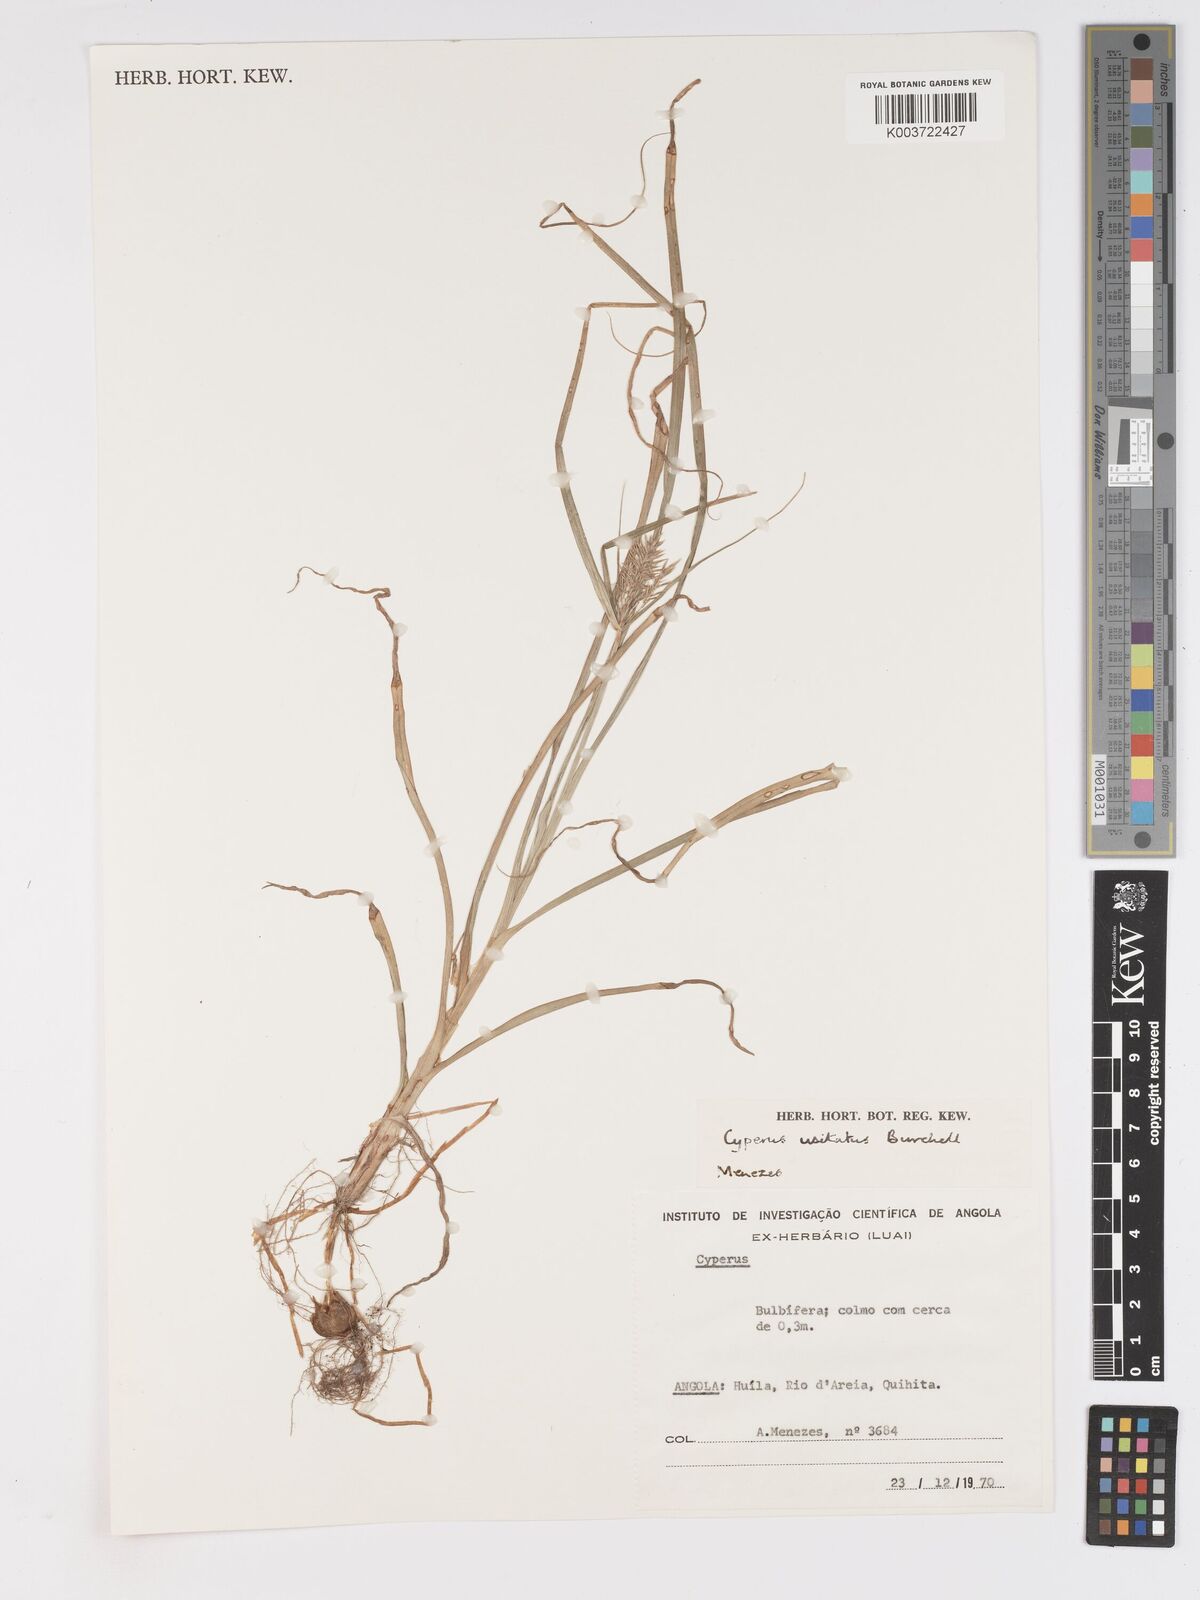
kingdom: Plantae
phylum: Tracheophyta
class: Liliopsida
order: Poales
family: Cyperaceae
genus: Cyperus
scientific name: Cyperus bulbosus
